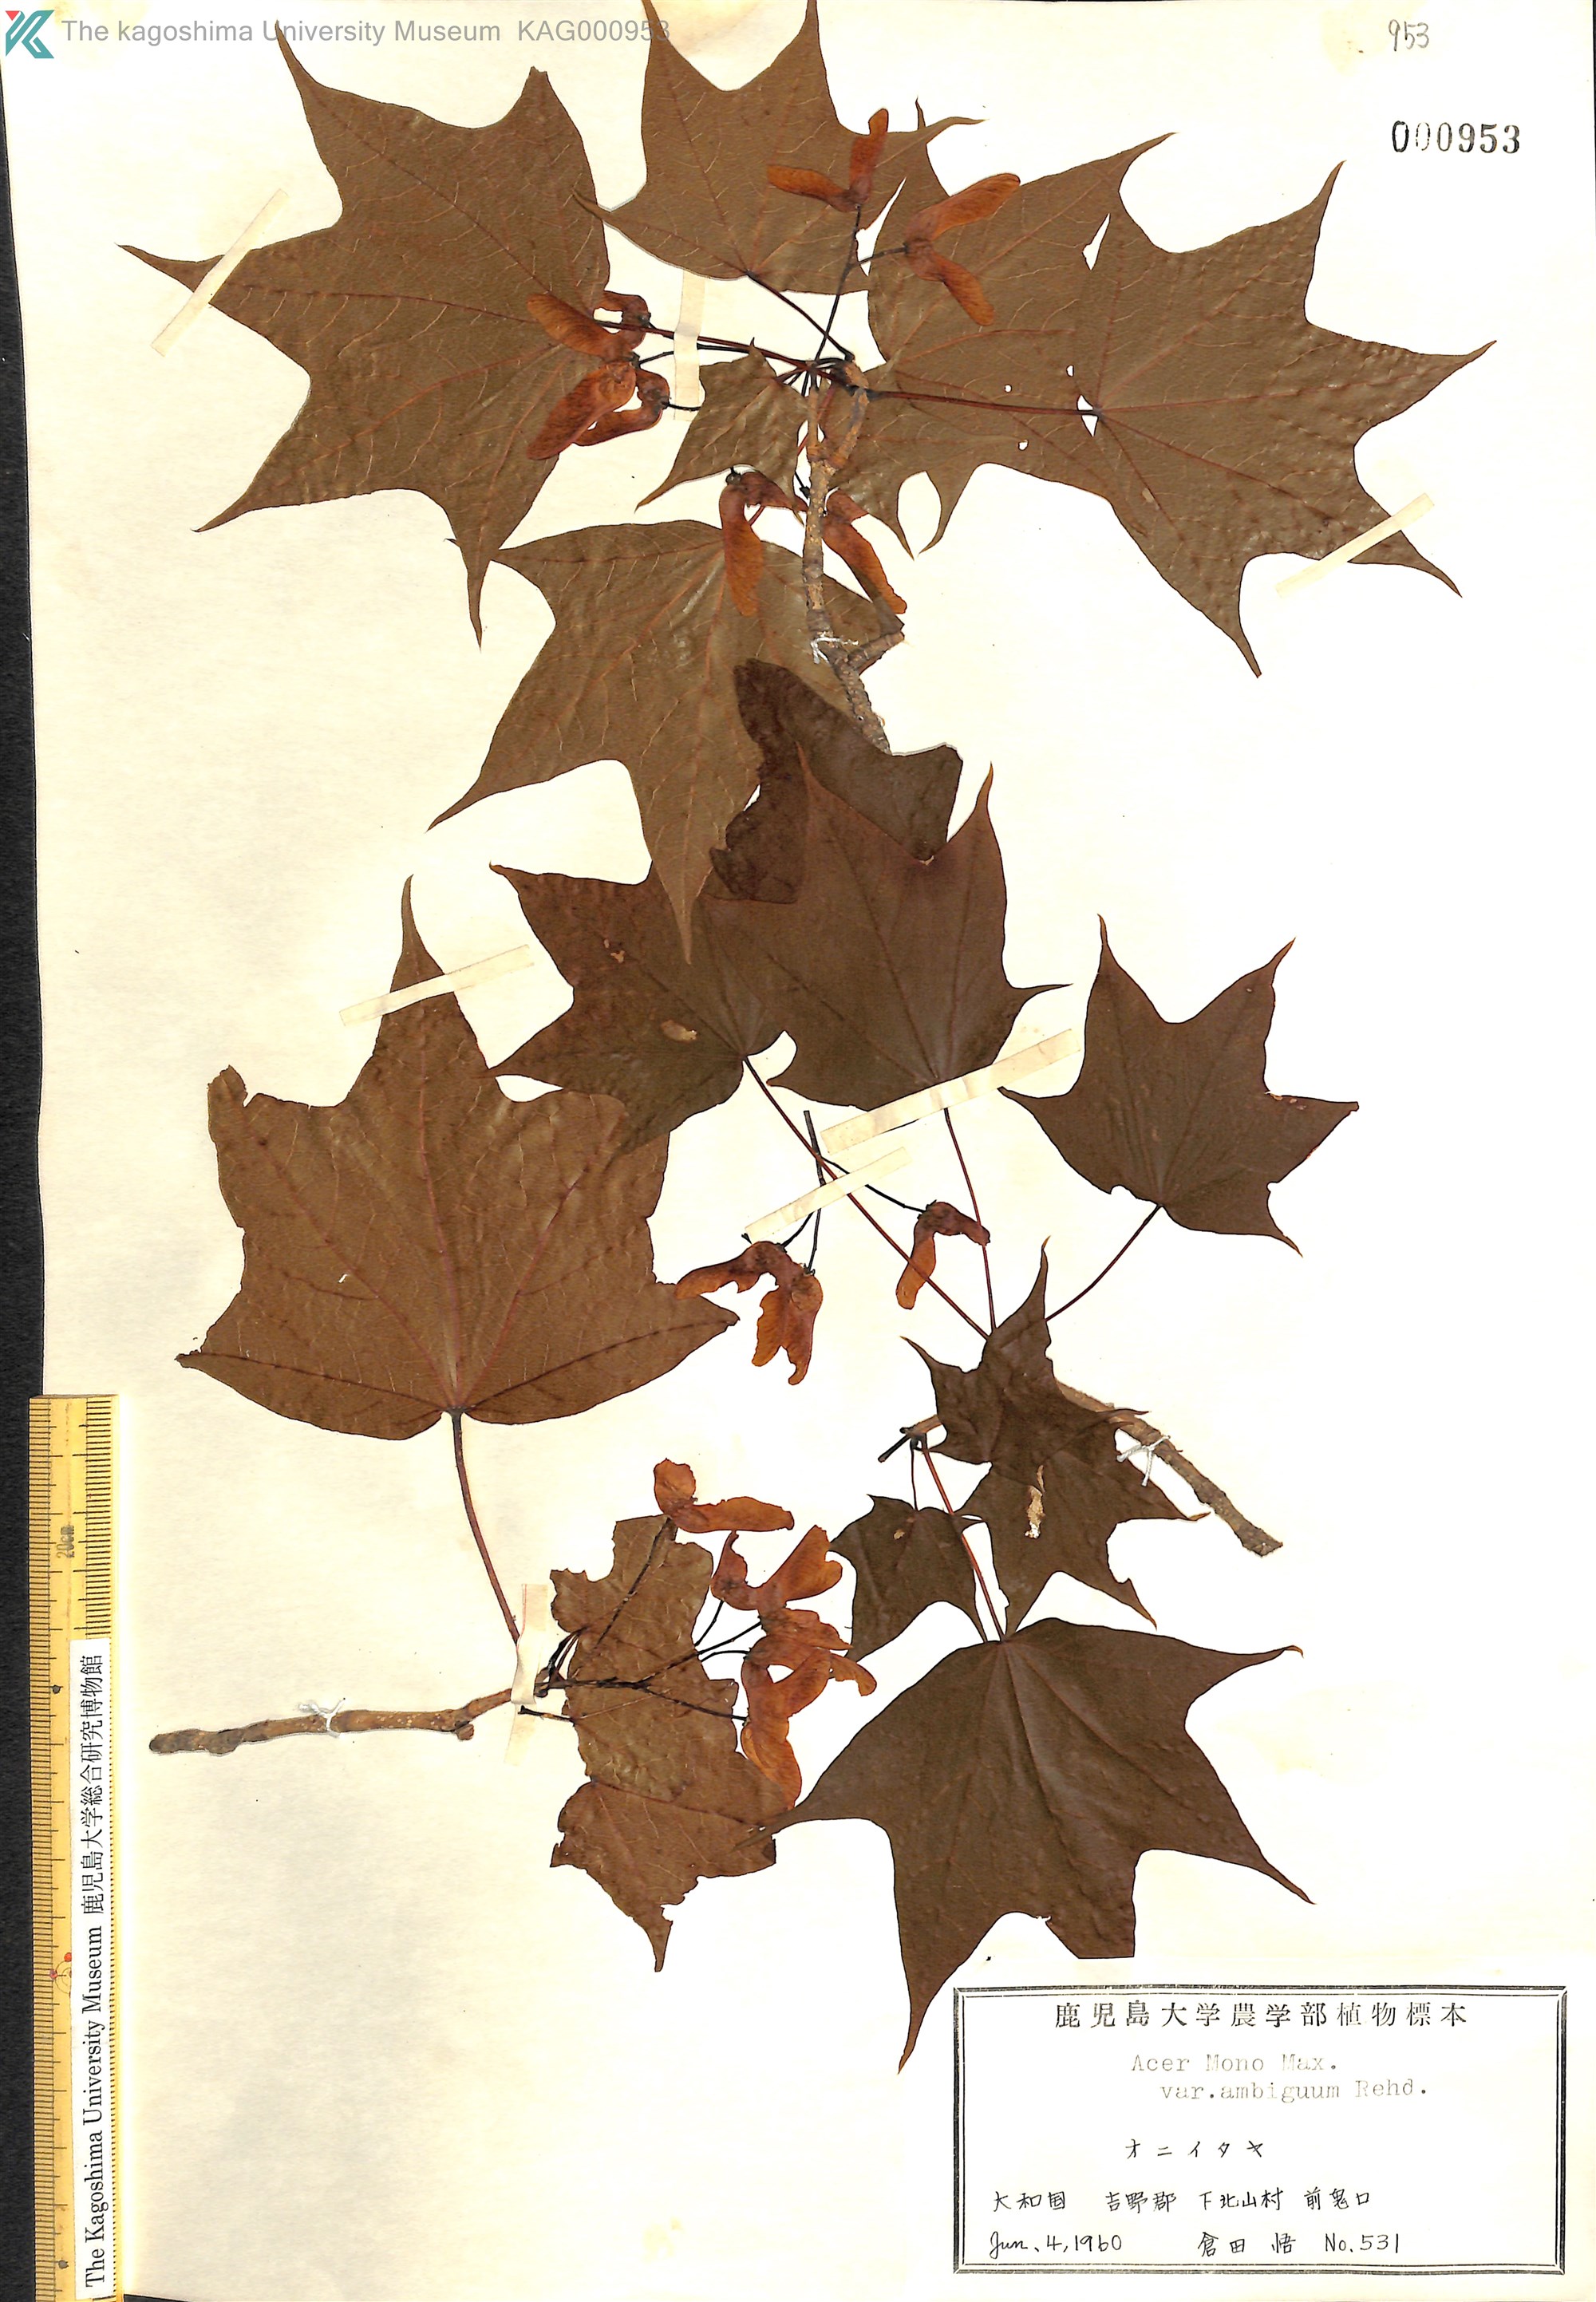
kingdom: Plantae
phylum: Tracheophyta
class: Magnoliopsida
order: Sapindales
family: Sapindaceae
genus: Acer
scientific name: Acer pictum
